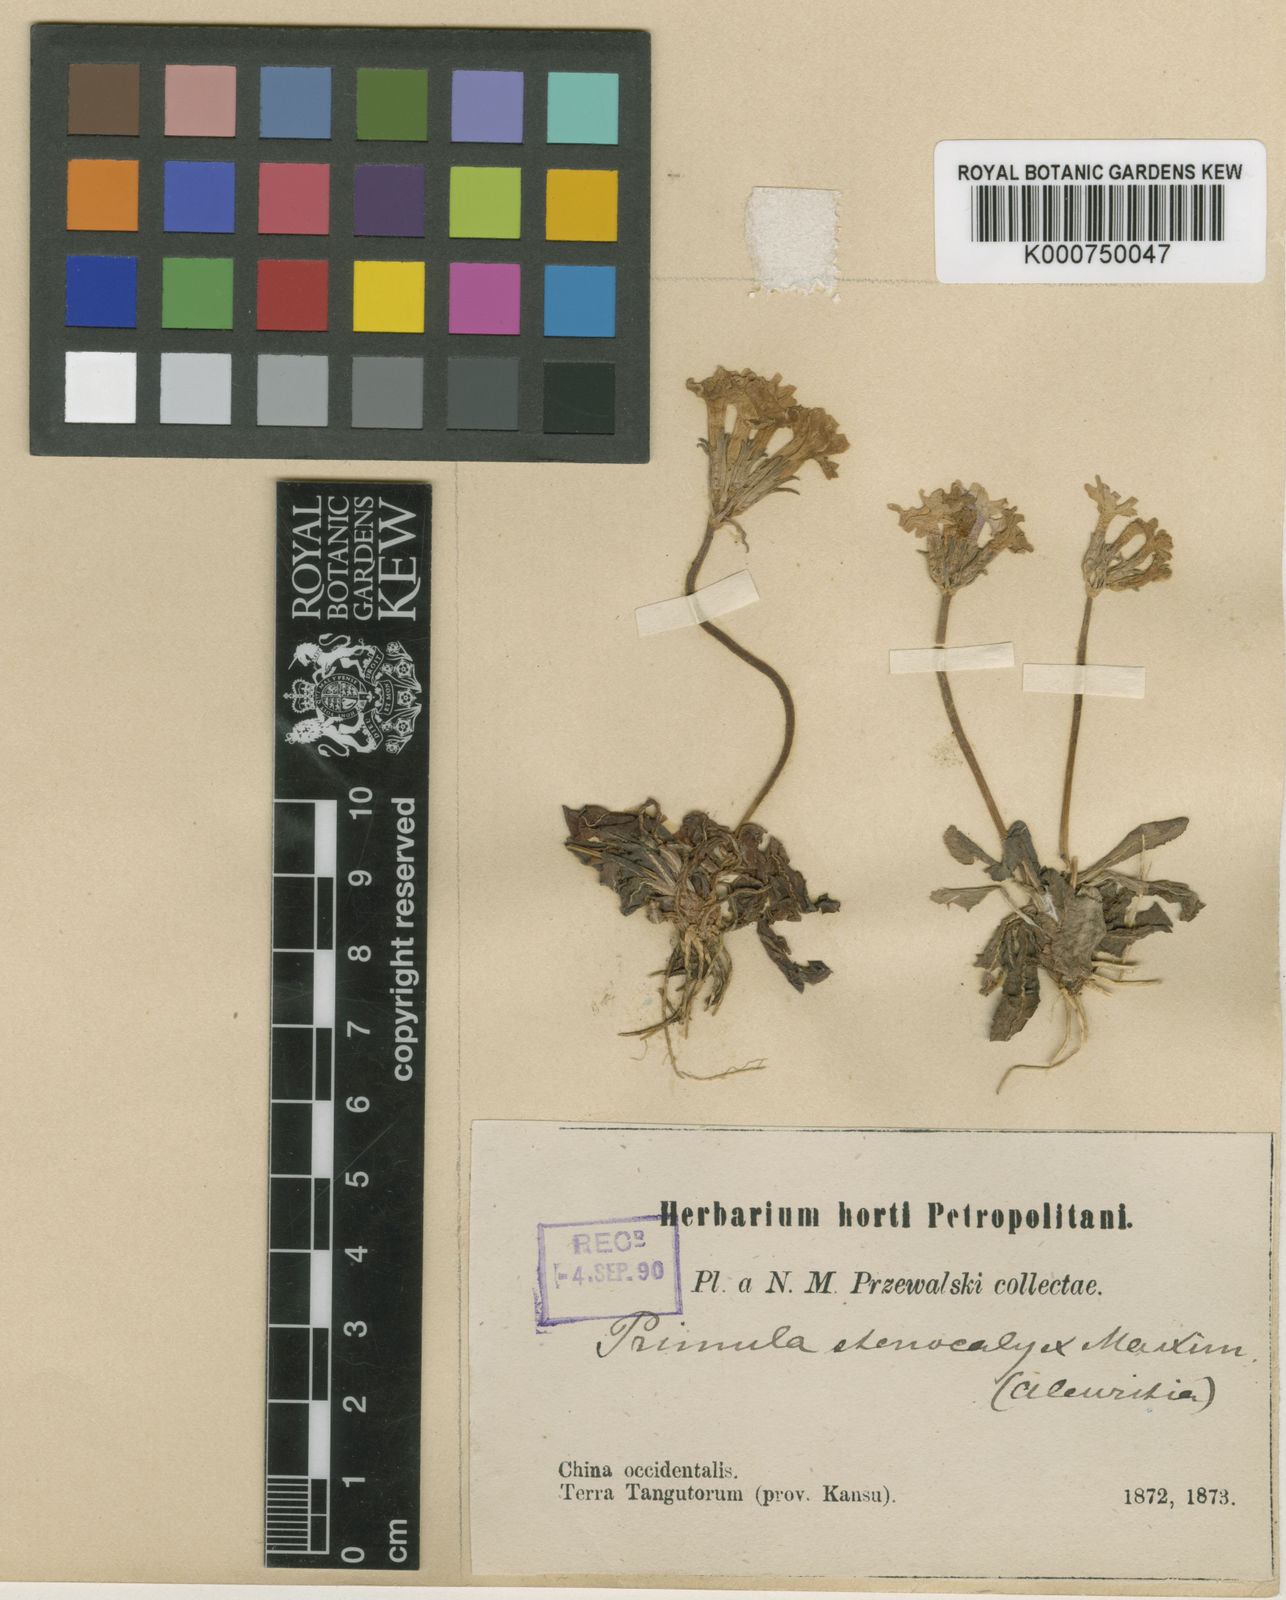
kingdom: Plantae
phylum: Tracheophyta
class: Magnoliopsida
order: Ericales
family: Primulaceae
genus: Primula
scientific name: Primula stenocalyx
